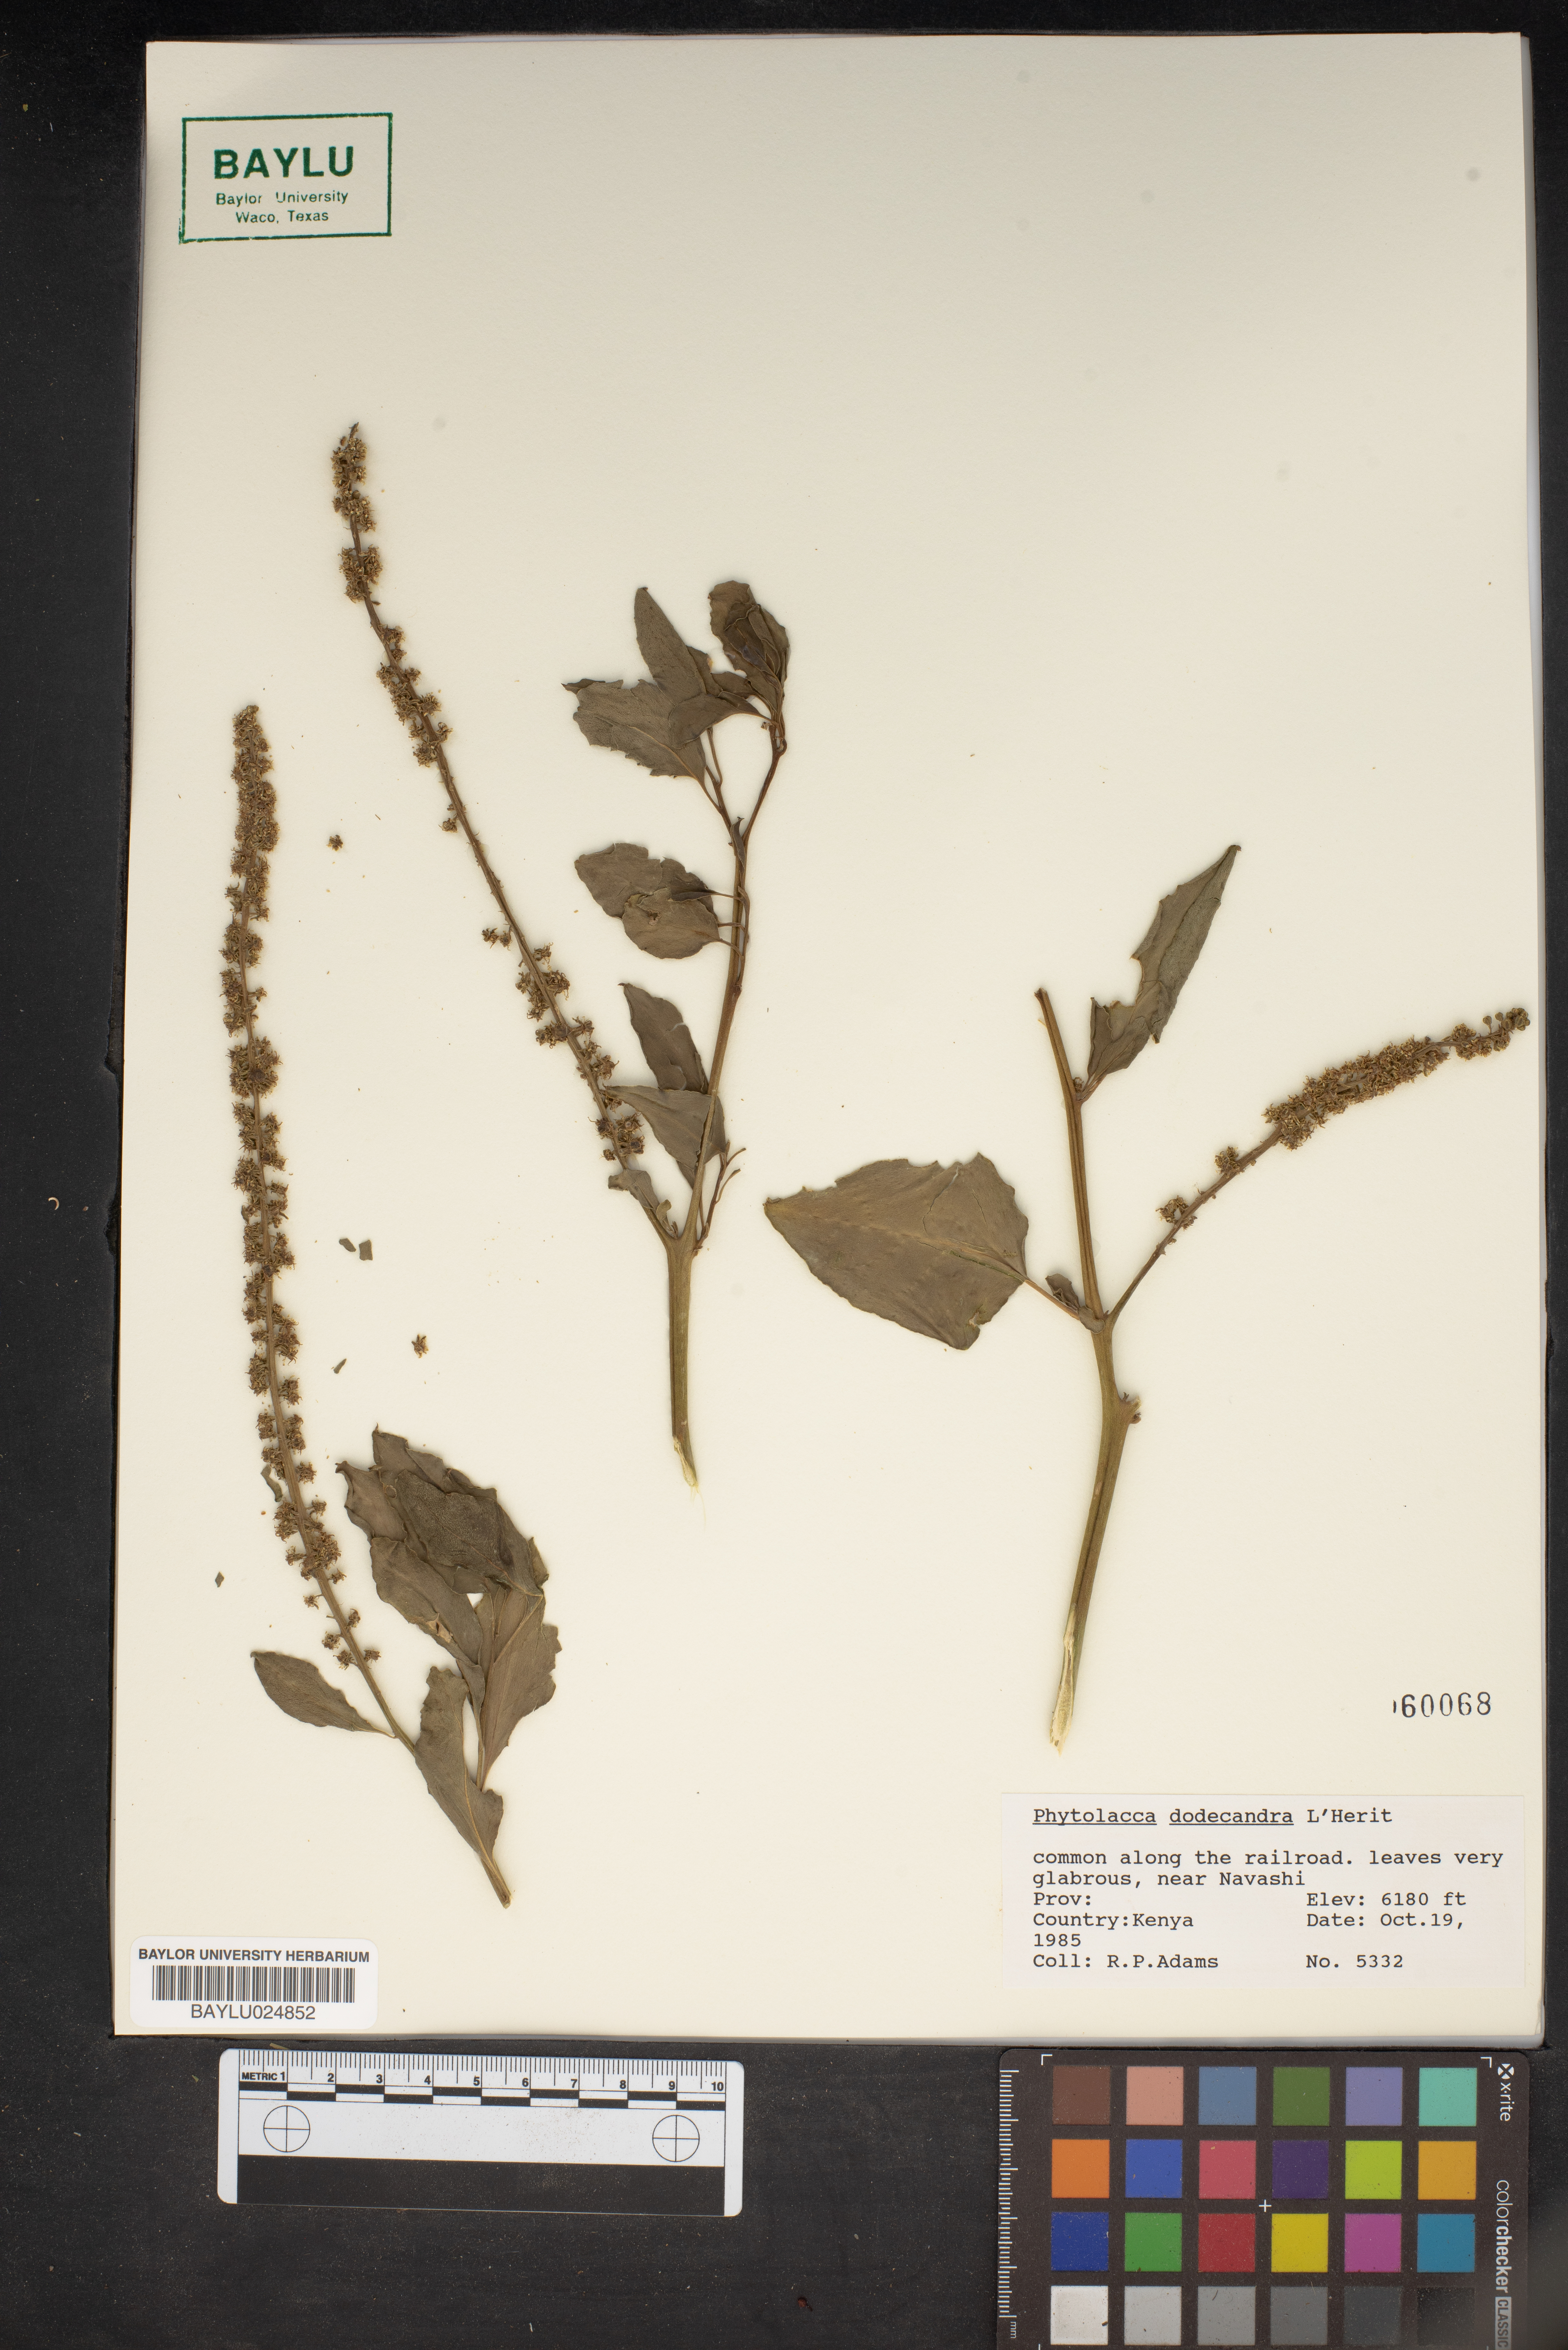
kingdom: Plantae
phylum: Tracheophyta
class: Magnoliopsida
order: Caryophyllales
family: Phytolaccaceae
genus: Phytolacca
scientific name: Phytolacca dodecandra
